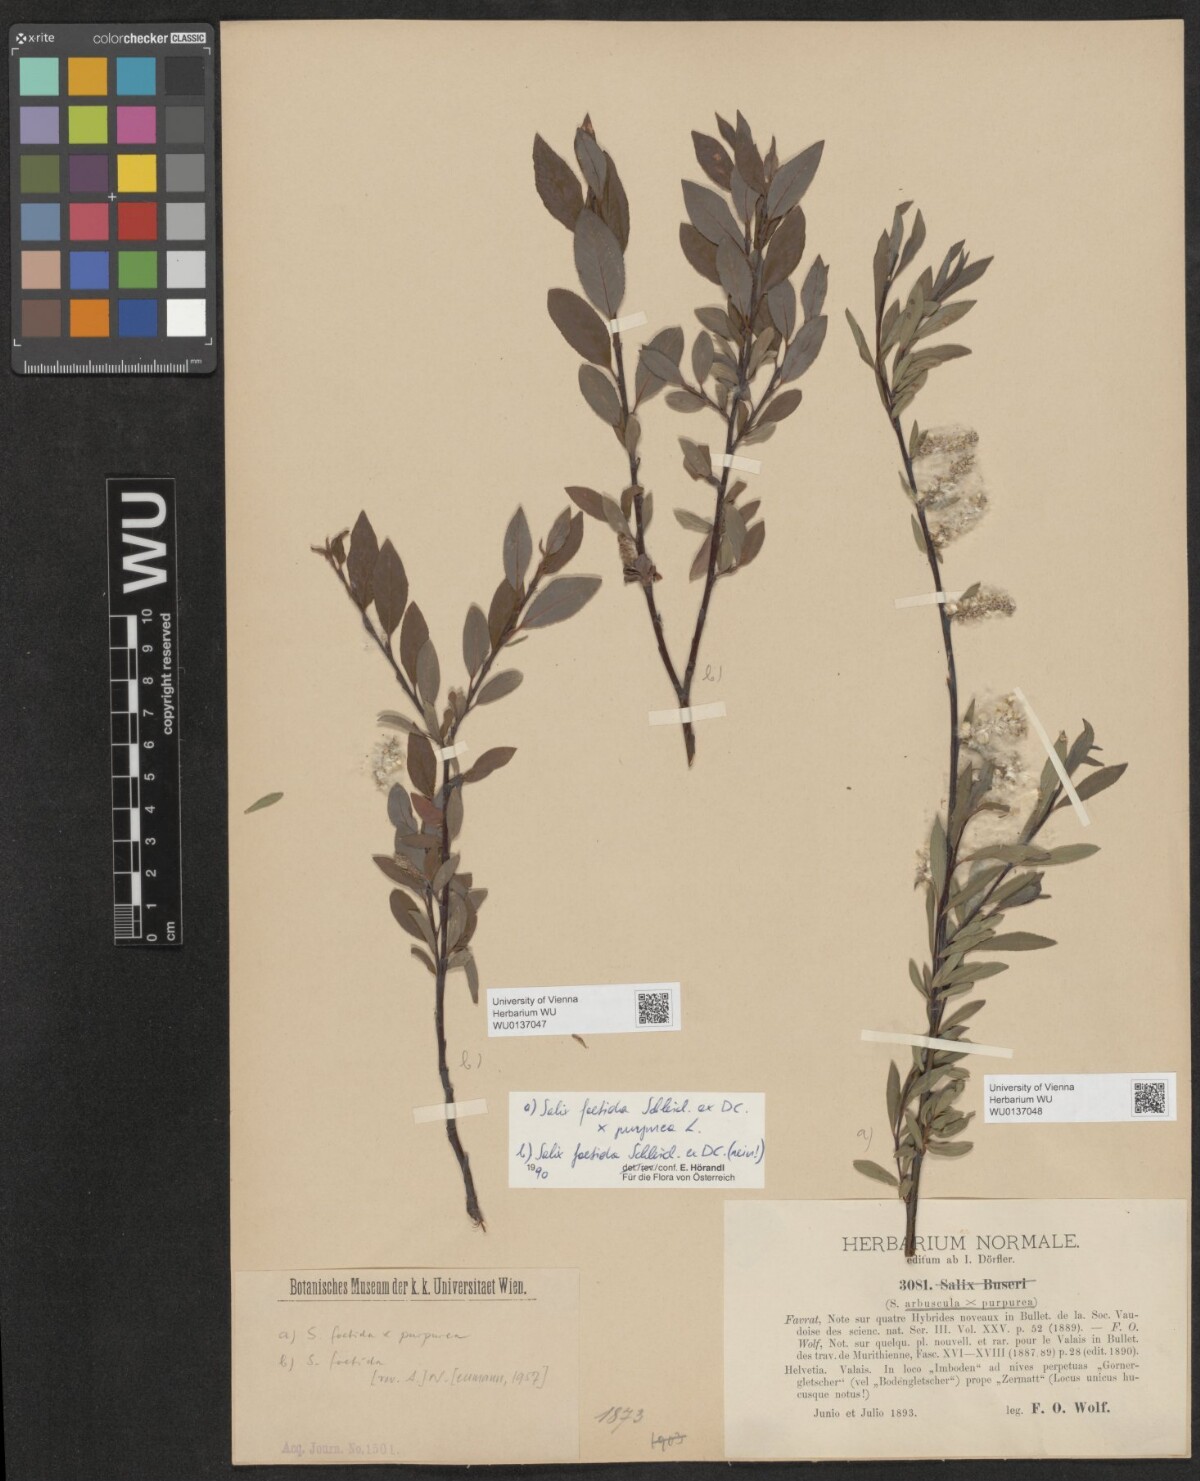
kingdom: Plantae
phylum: Tracheophyta
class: Magnoliopsida
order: Malpighiales
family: Salicaceae
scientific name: Salicaceae
